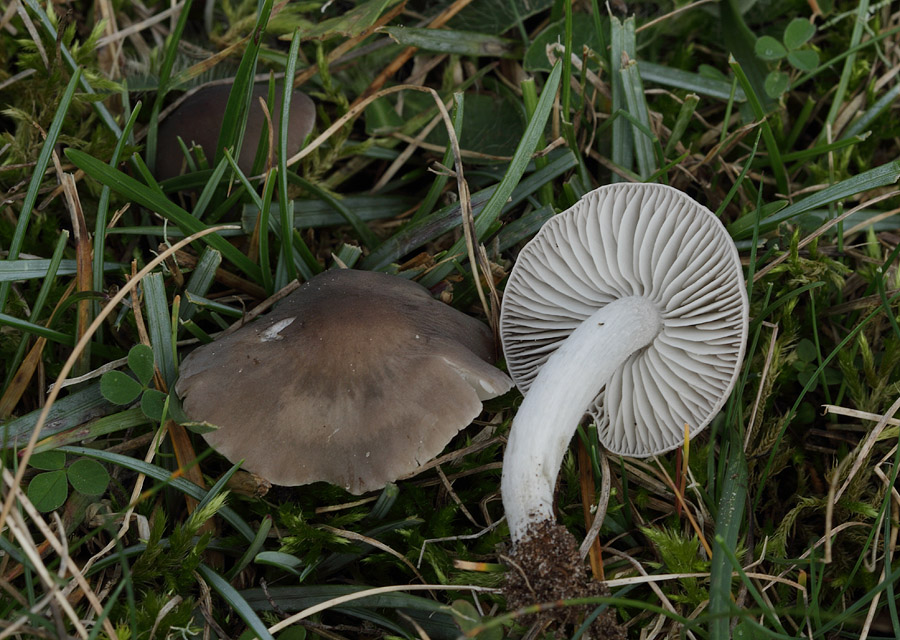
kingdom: Fungi
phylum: Basidiomycota
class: Agaricomycetes
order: Agaricales
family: Tricholomataceae
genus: Dermoloma
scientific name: Dermoloma cuneifolium
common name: eng-nonnehat
